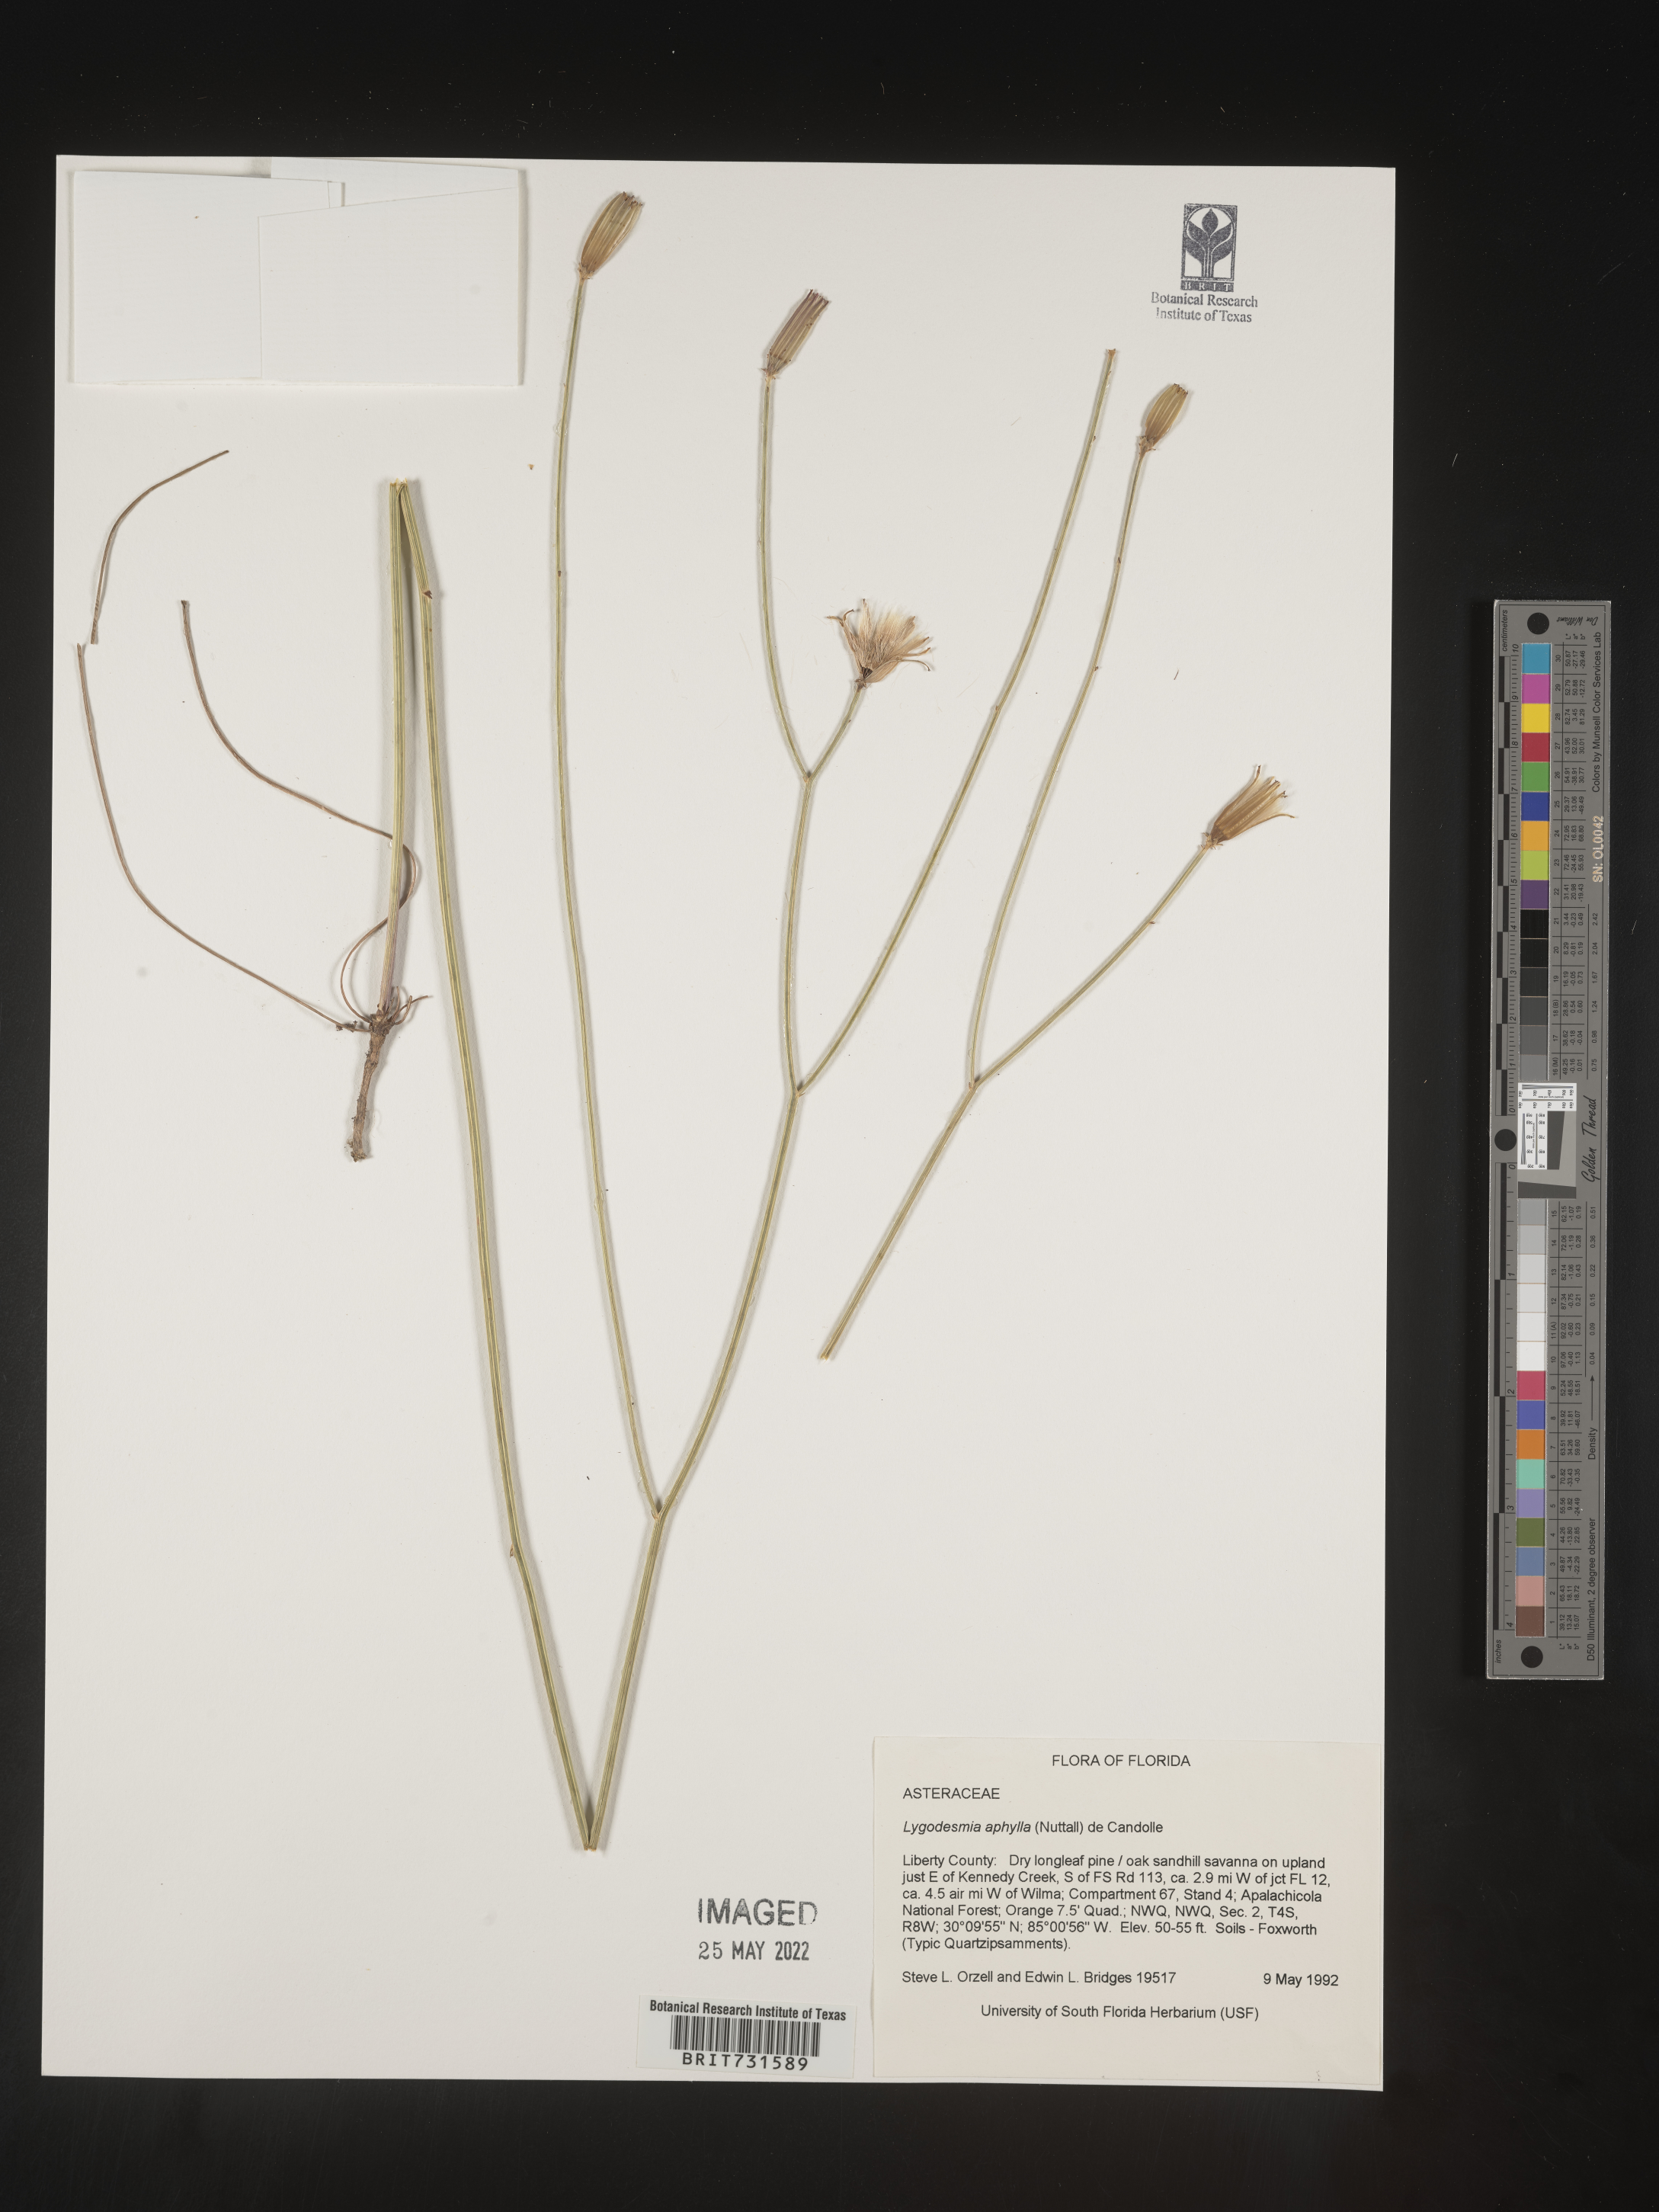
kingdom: Plantae
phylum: Tracheophyta
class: Magnoliopsida
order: Asterales
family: Asteraceae
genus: Lygodesmia
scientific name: Lygodesmia aphylla
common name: Rose-rush
